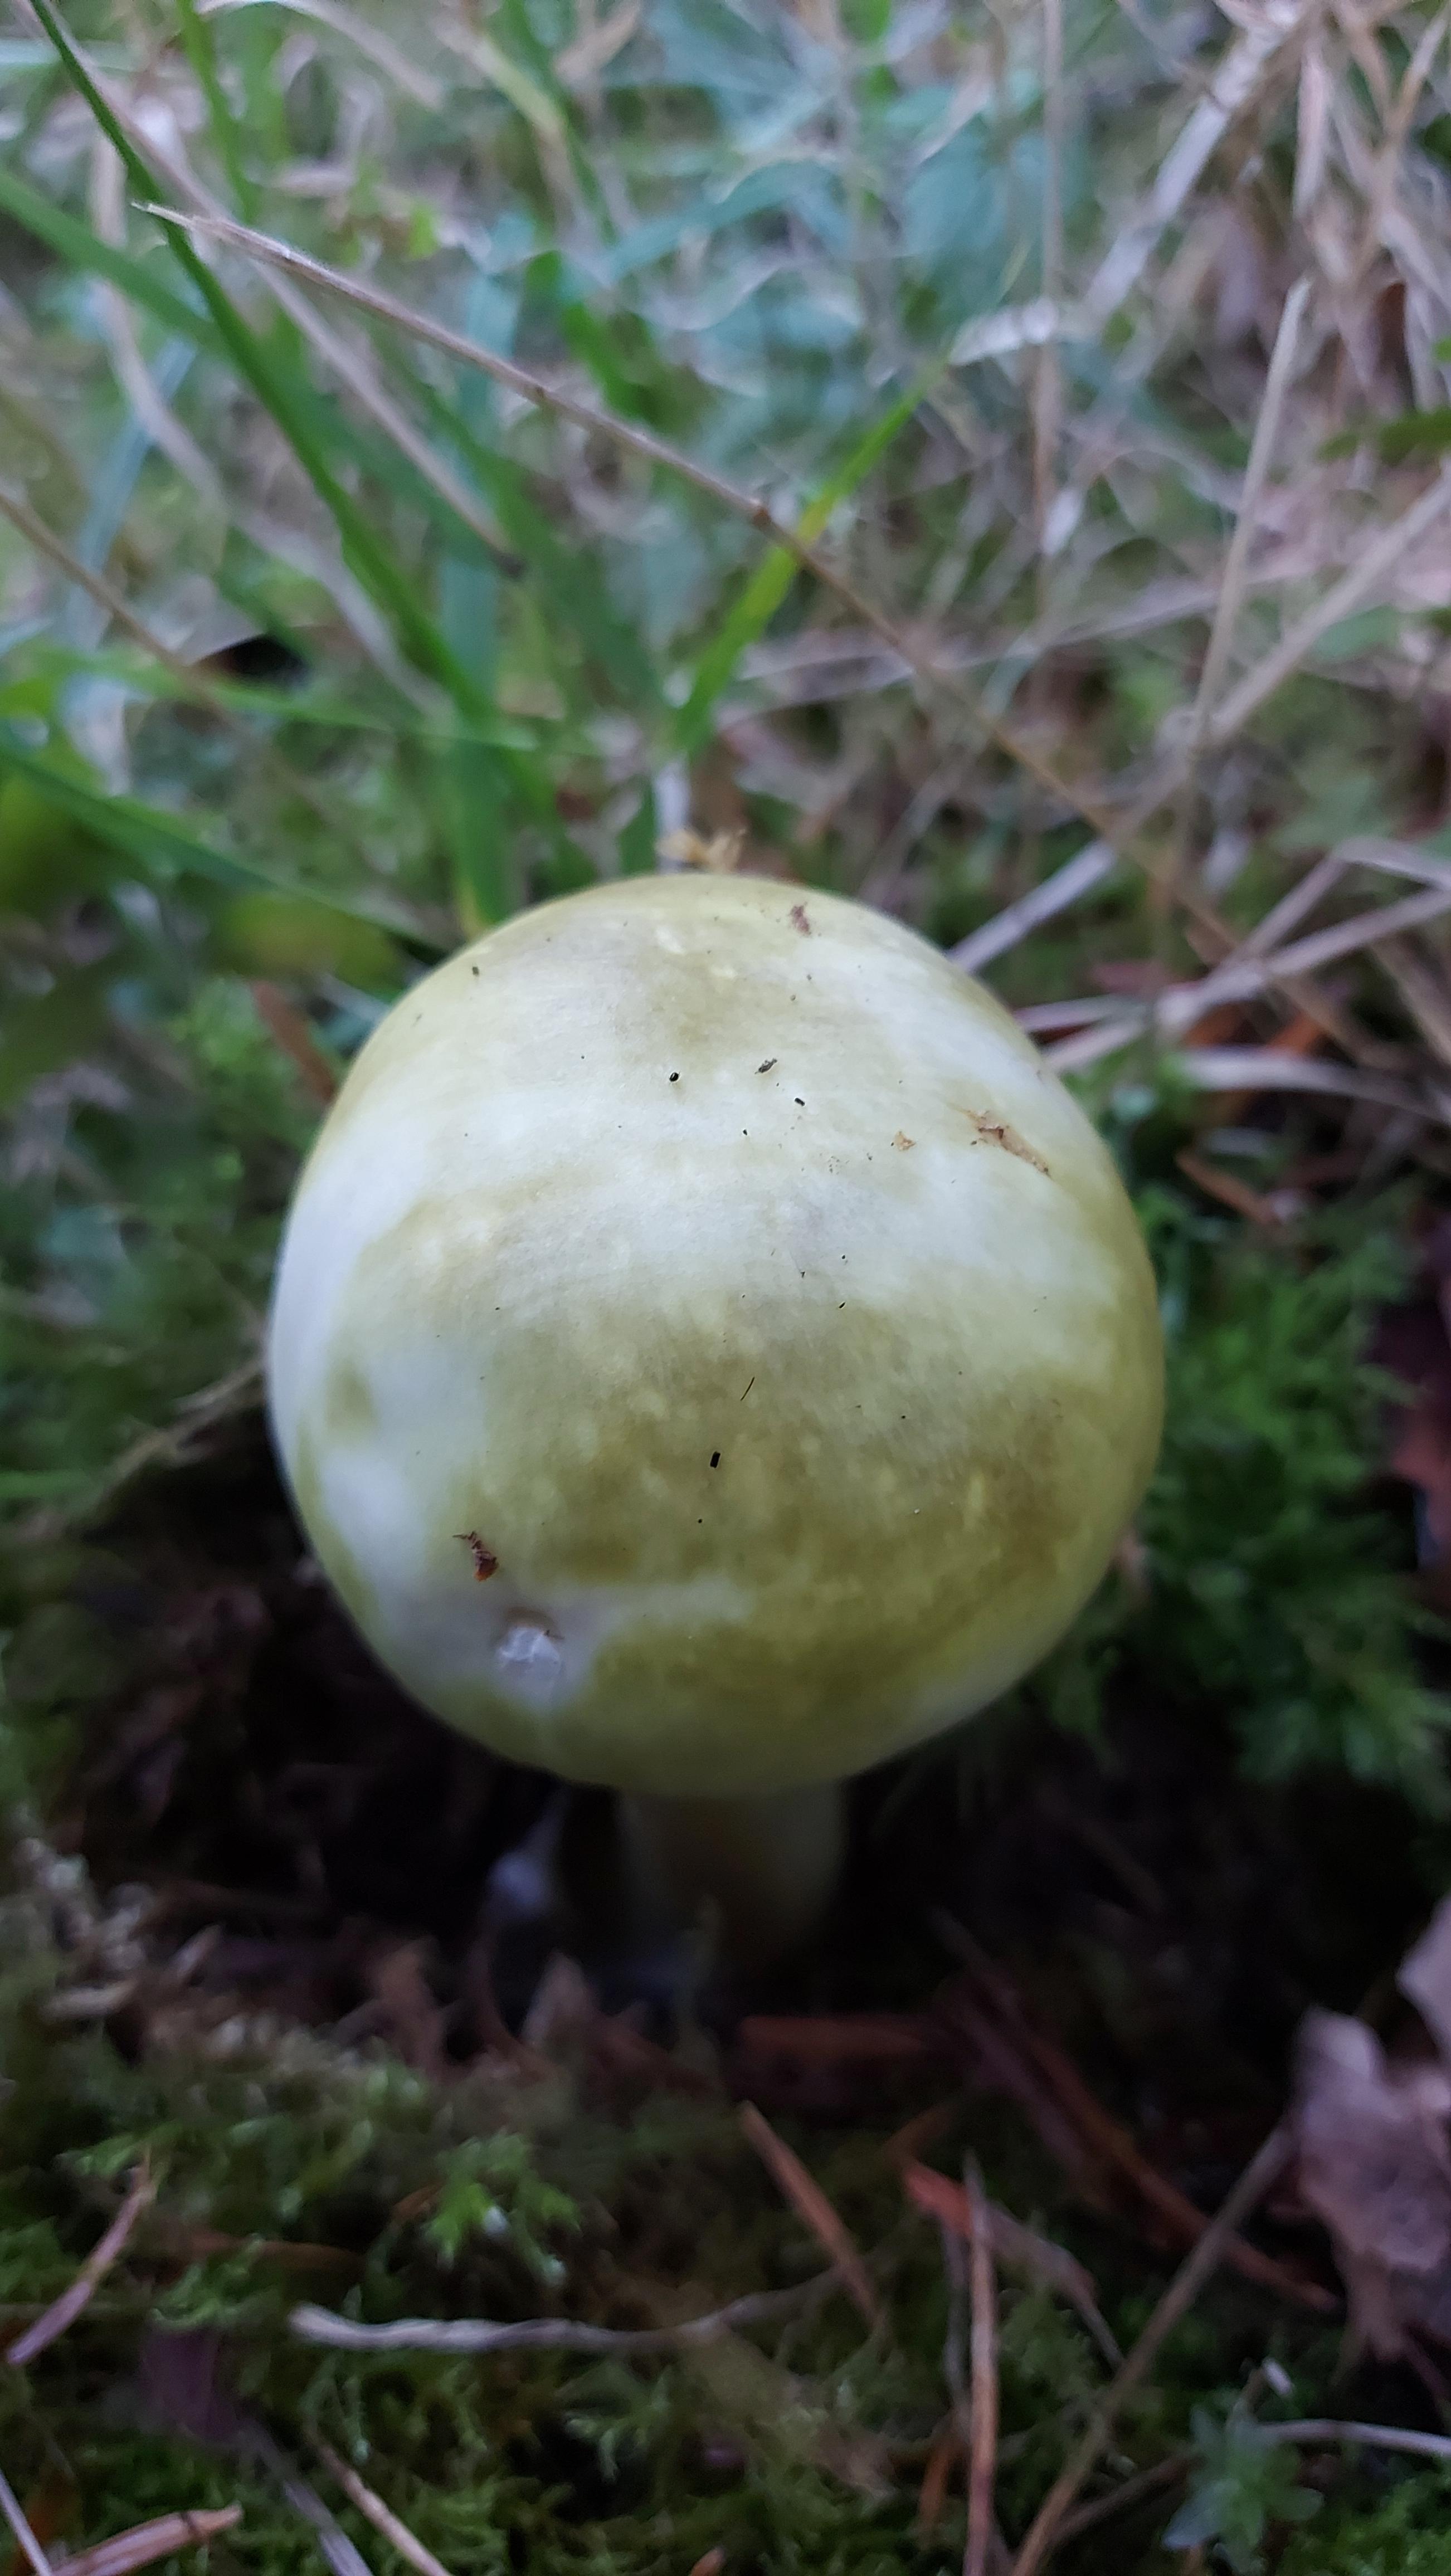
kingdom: Fungi
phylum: Basidiomycota
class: Agaricomycetes
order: Agaricales
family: Amanitaceae
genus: Amanita
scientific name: Amanita phalloides
